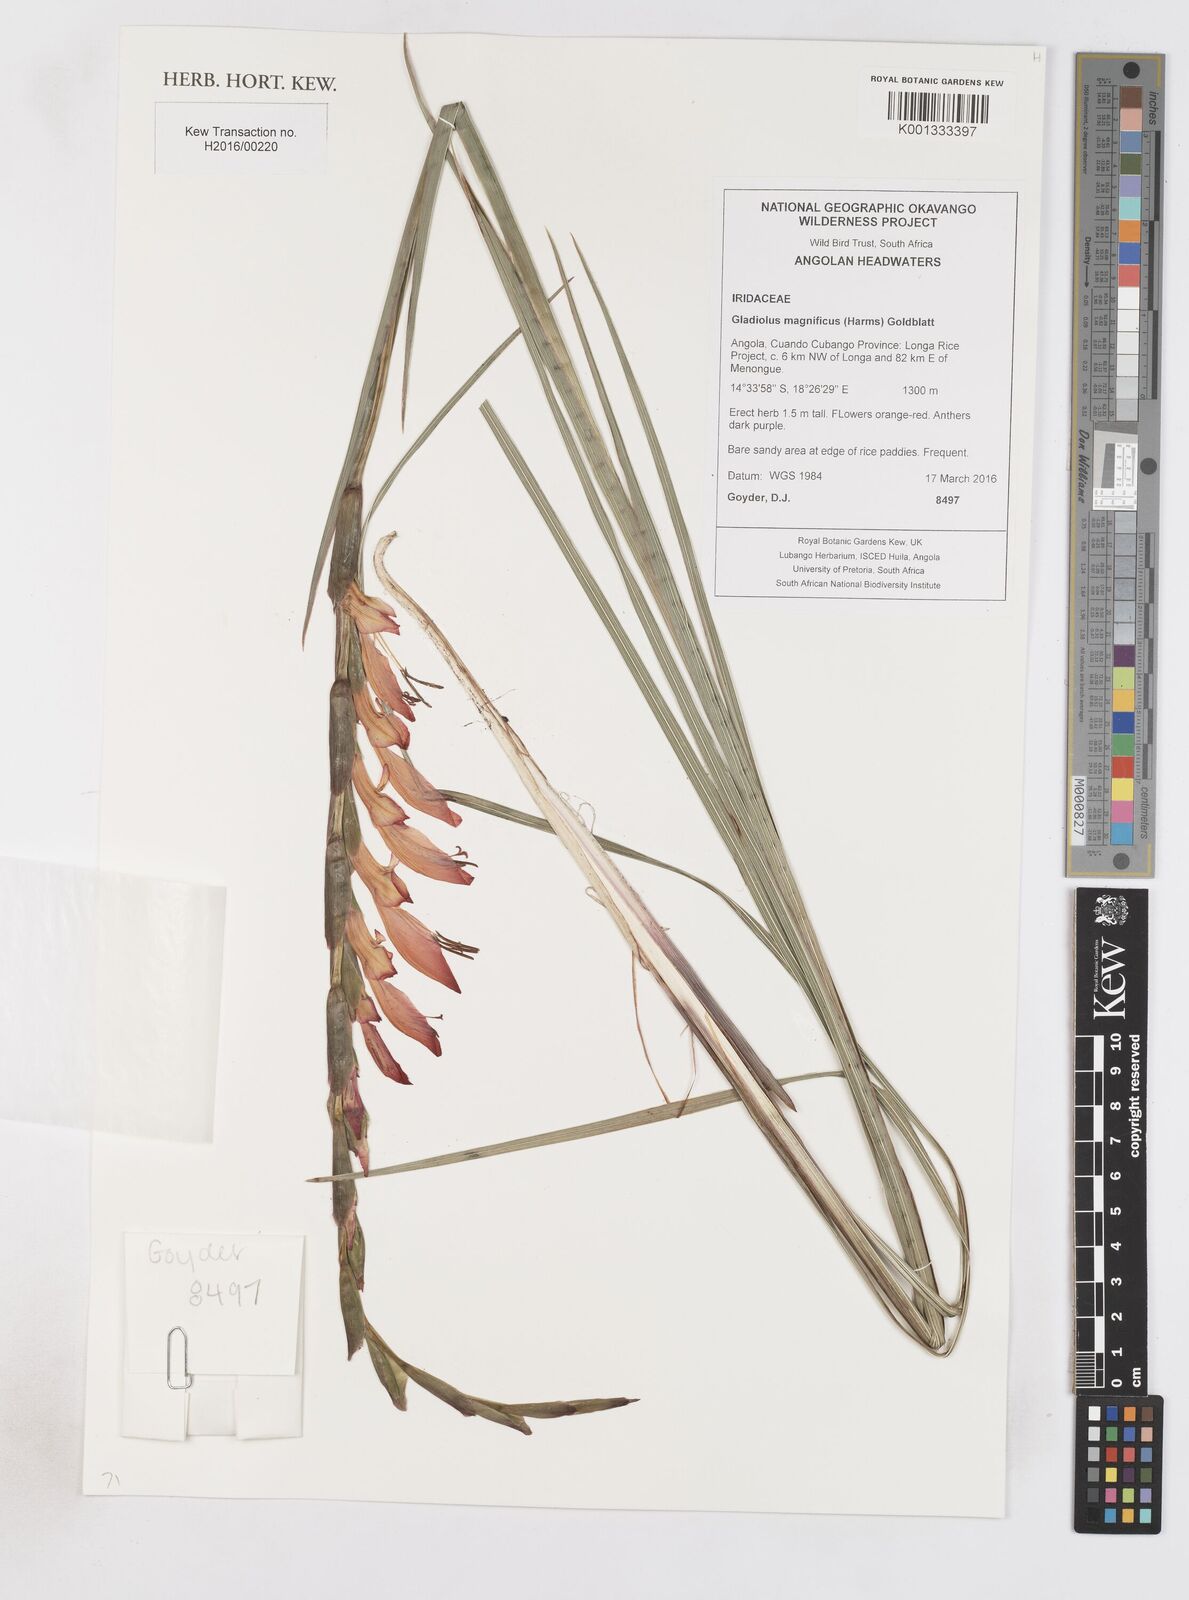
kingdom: Plantae
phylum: Tracheophyta
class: Liliopsida
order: Asparagales
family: Iridaceae
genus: Gladiolus
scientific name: Gladiolus magnificus
